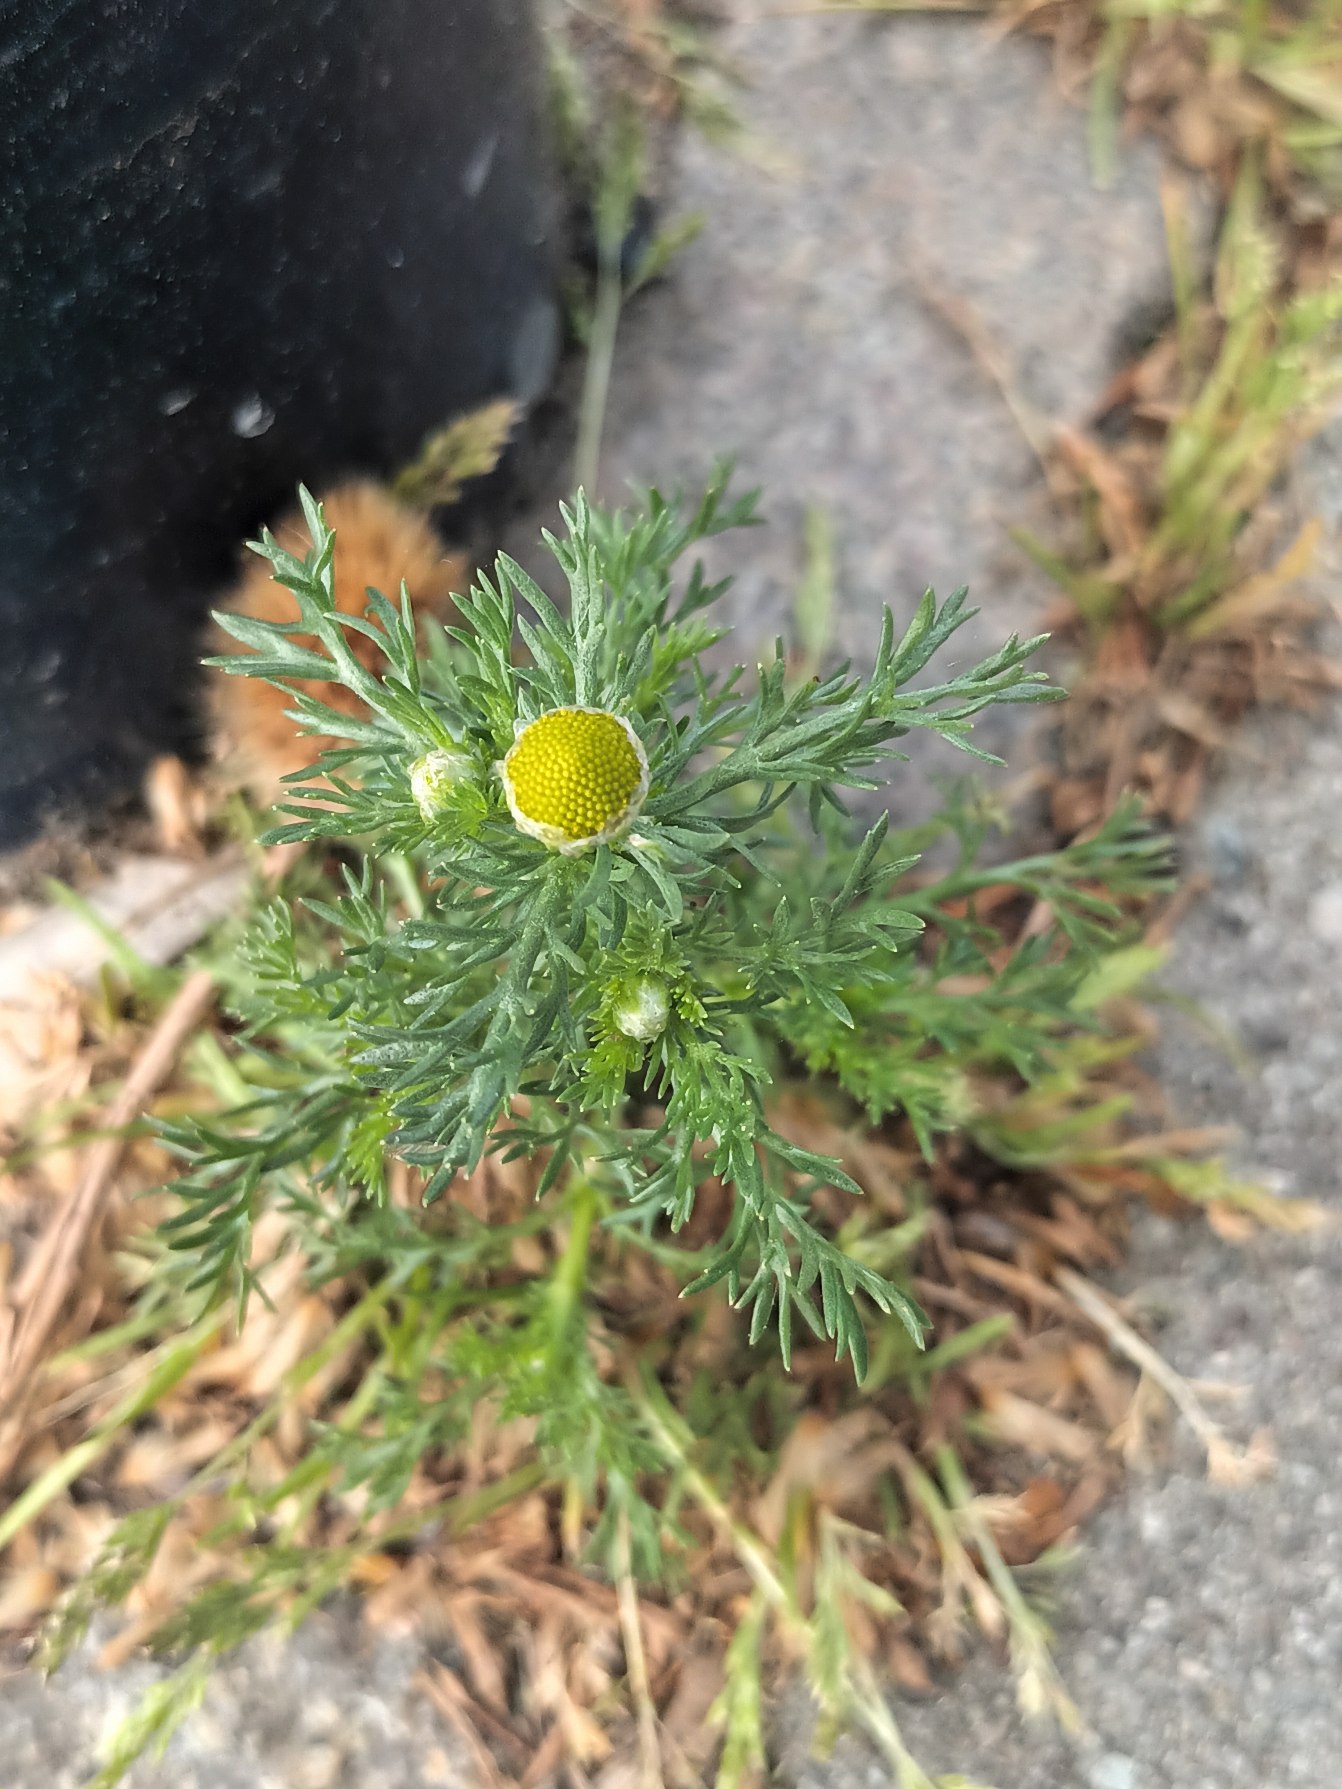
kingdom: Plantae
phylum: Tracheophyta
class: Magnoliopsida
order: Asterales
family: Asteraceae
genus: Matricaria
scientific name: Matricaria discoidea
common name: Skive-kamille
